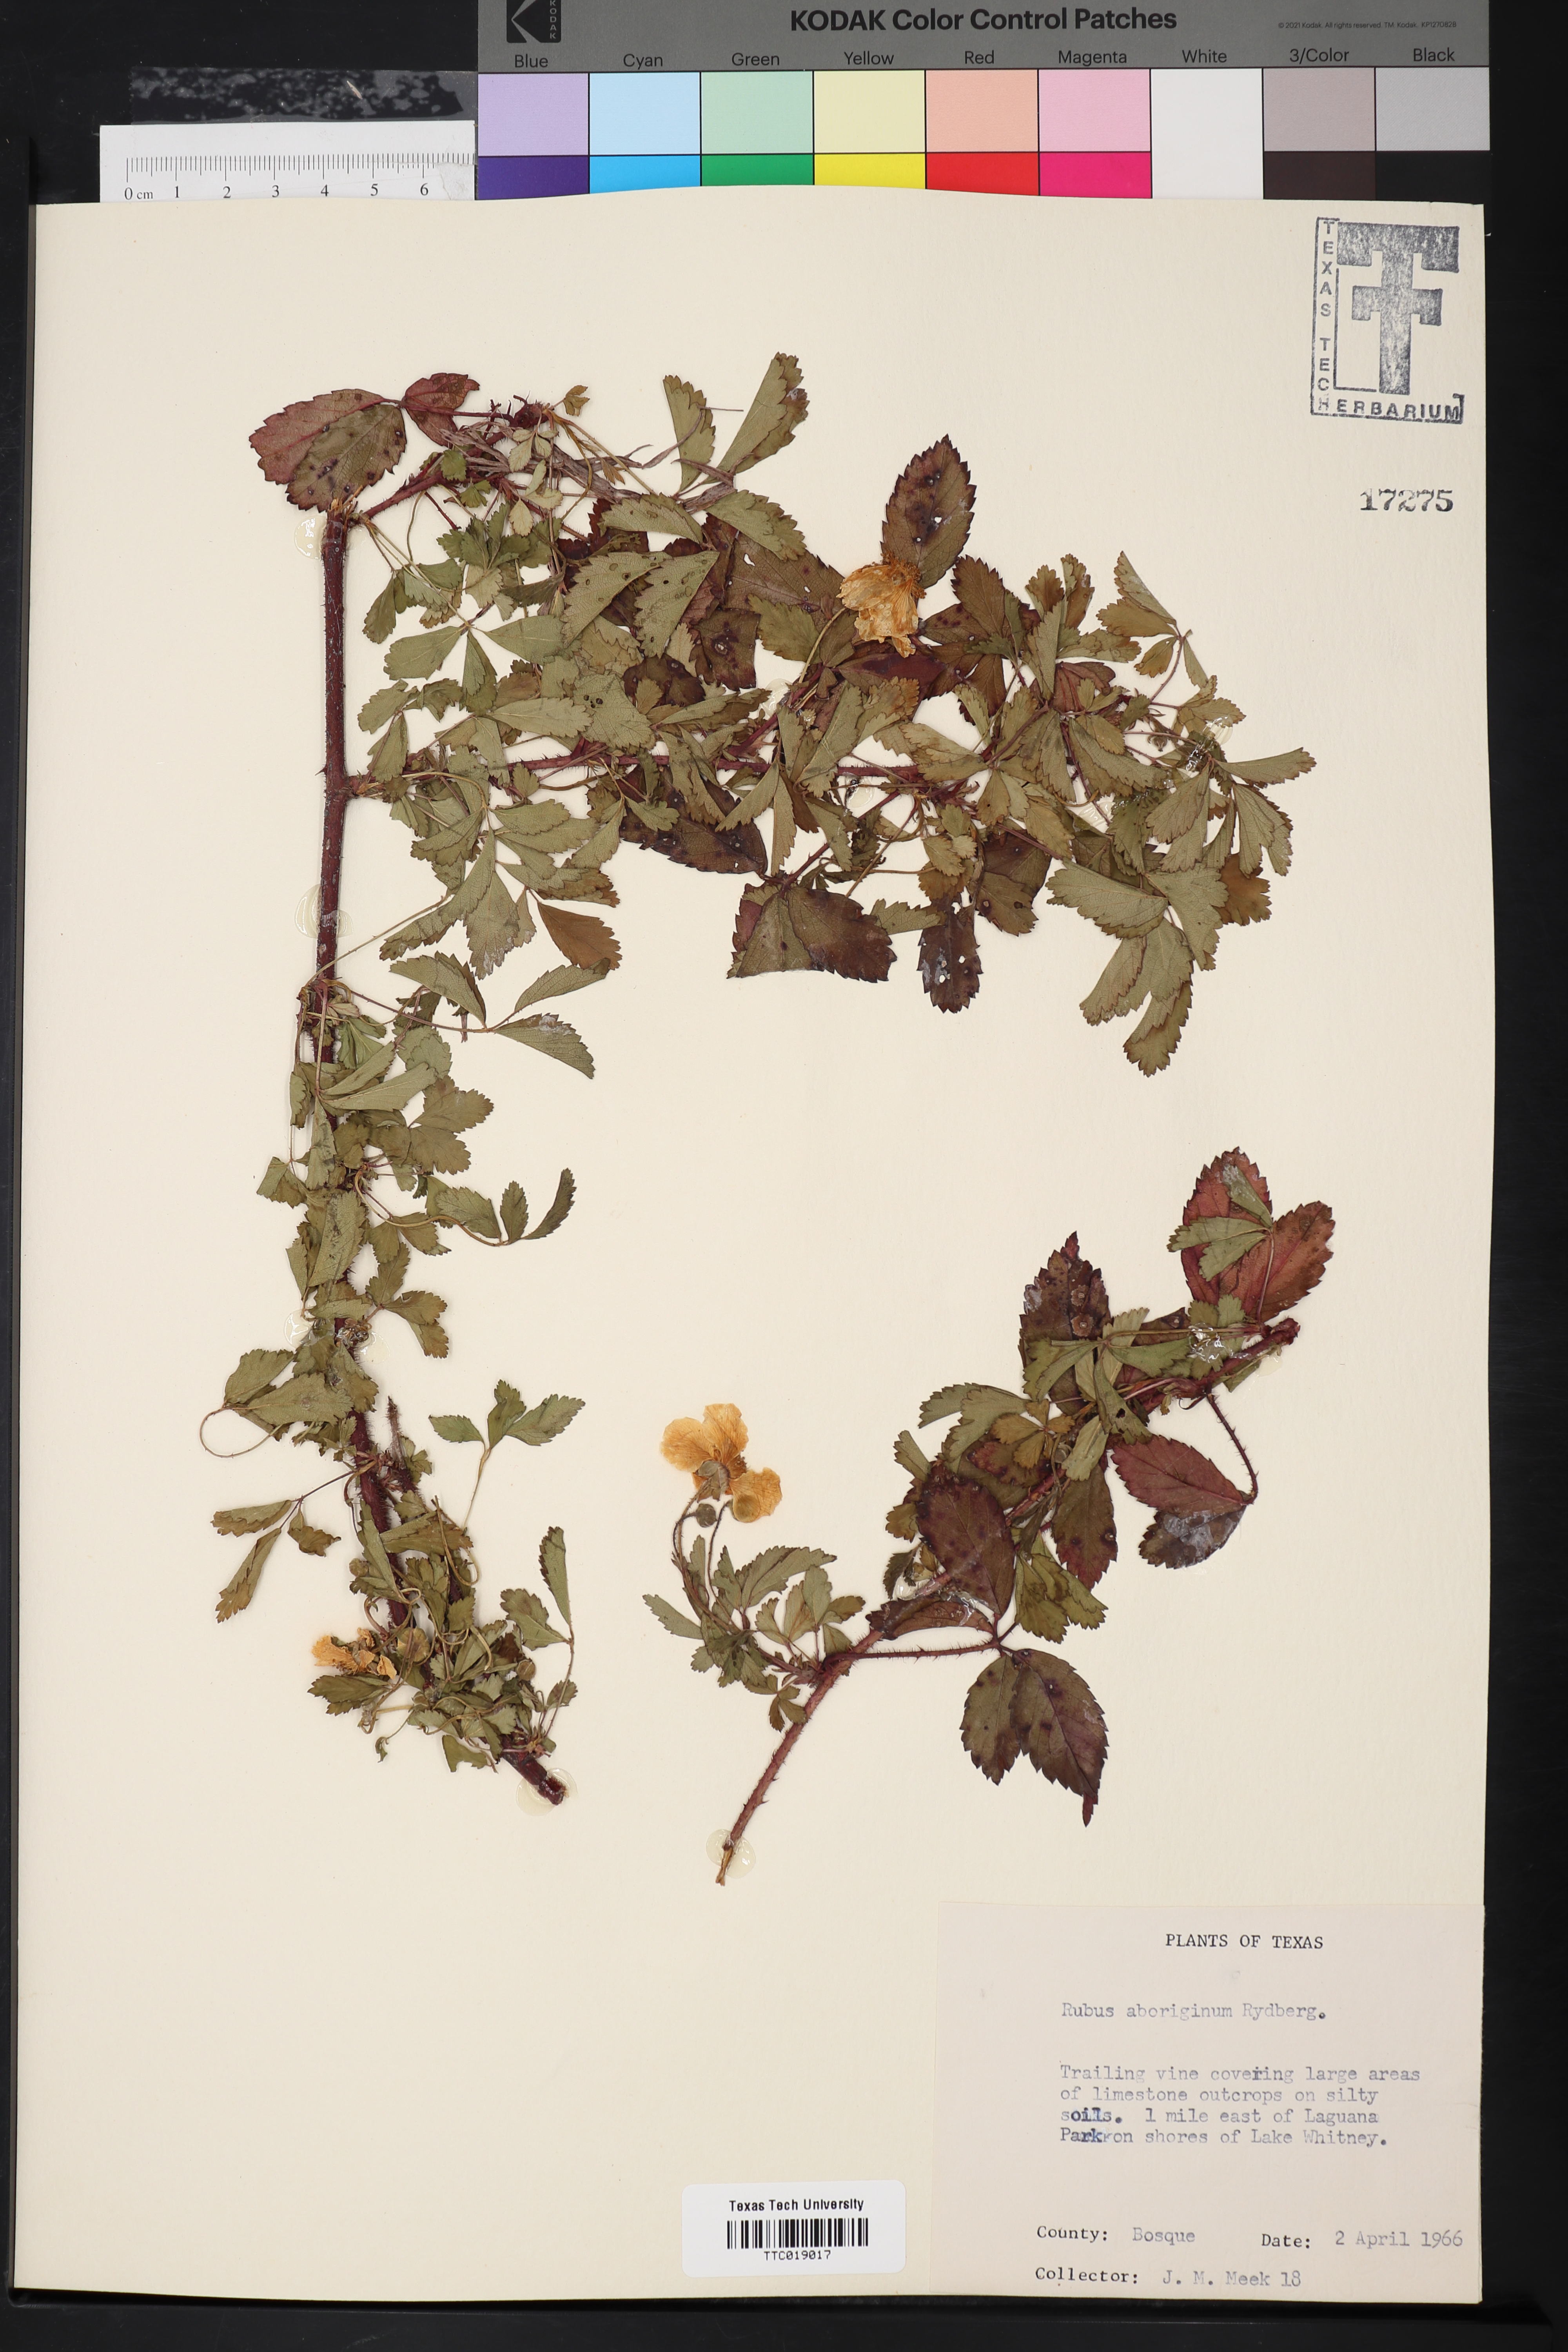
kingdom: Plantae
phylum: Tracheophyta
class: Magnoliopsida
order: Rosales
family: Rosaceae
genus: Rubus
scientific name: Rubus aboriginum
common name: Mayes dewberry
